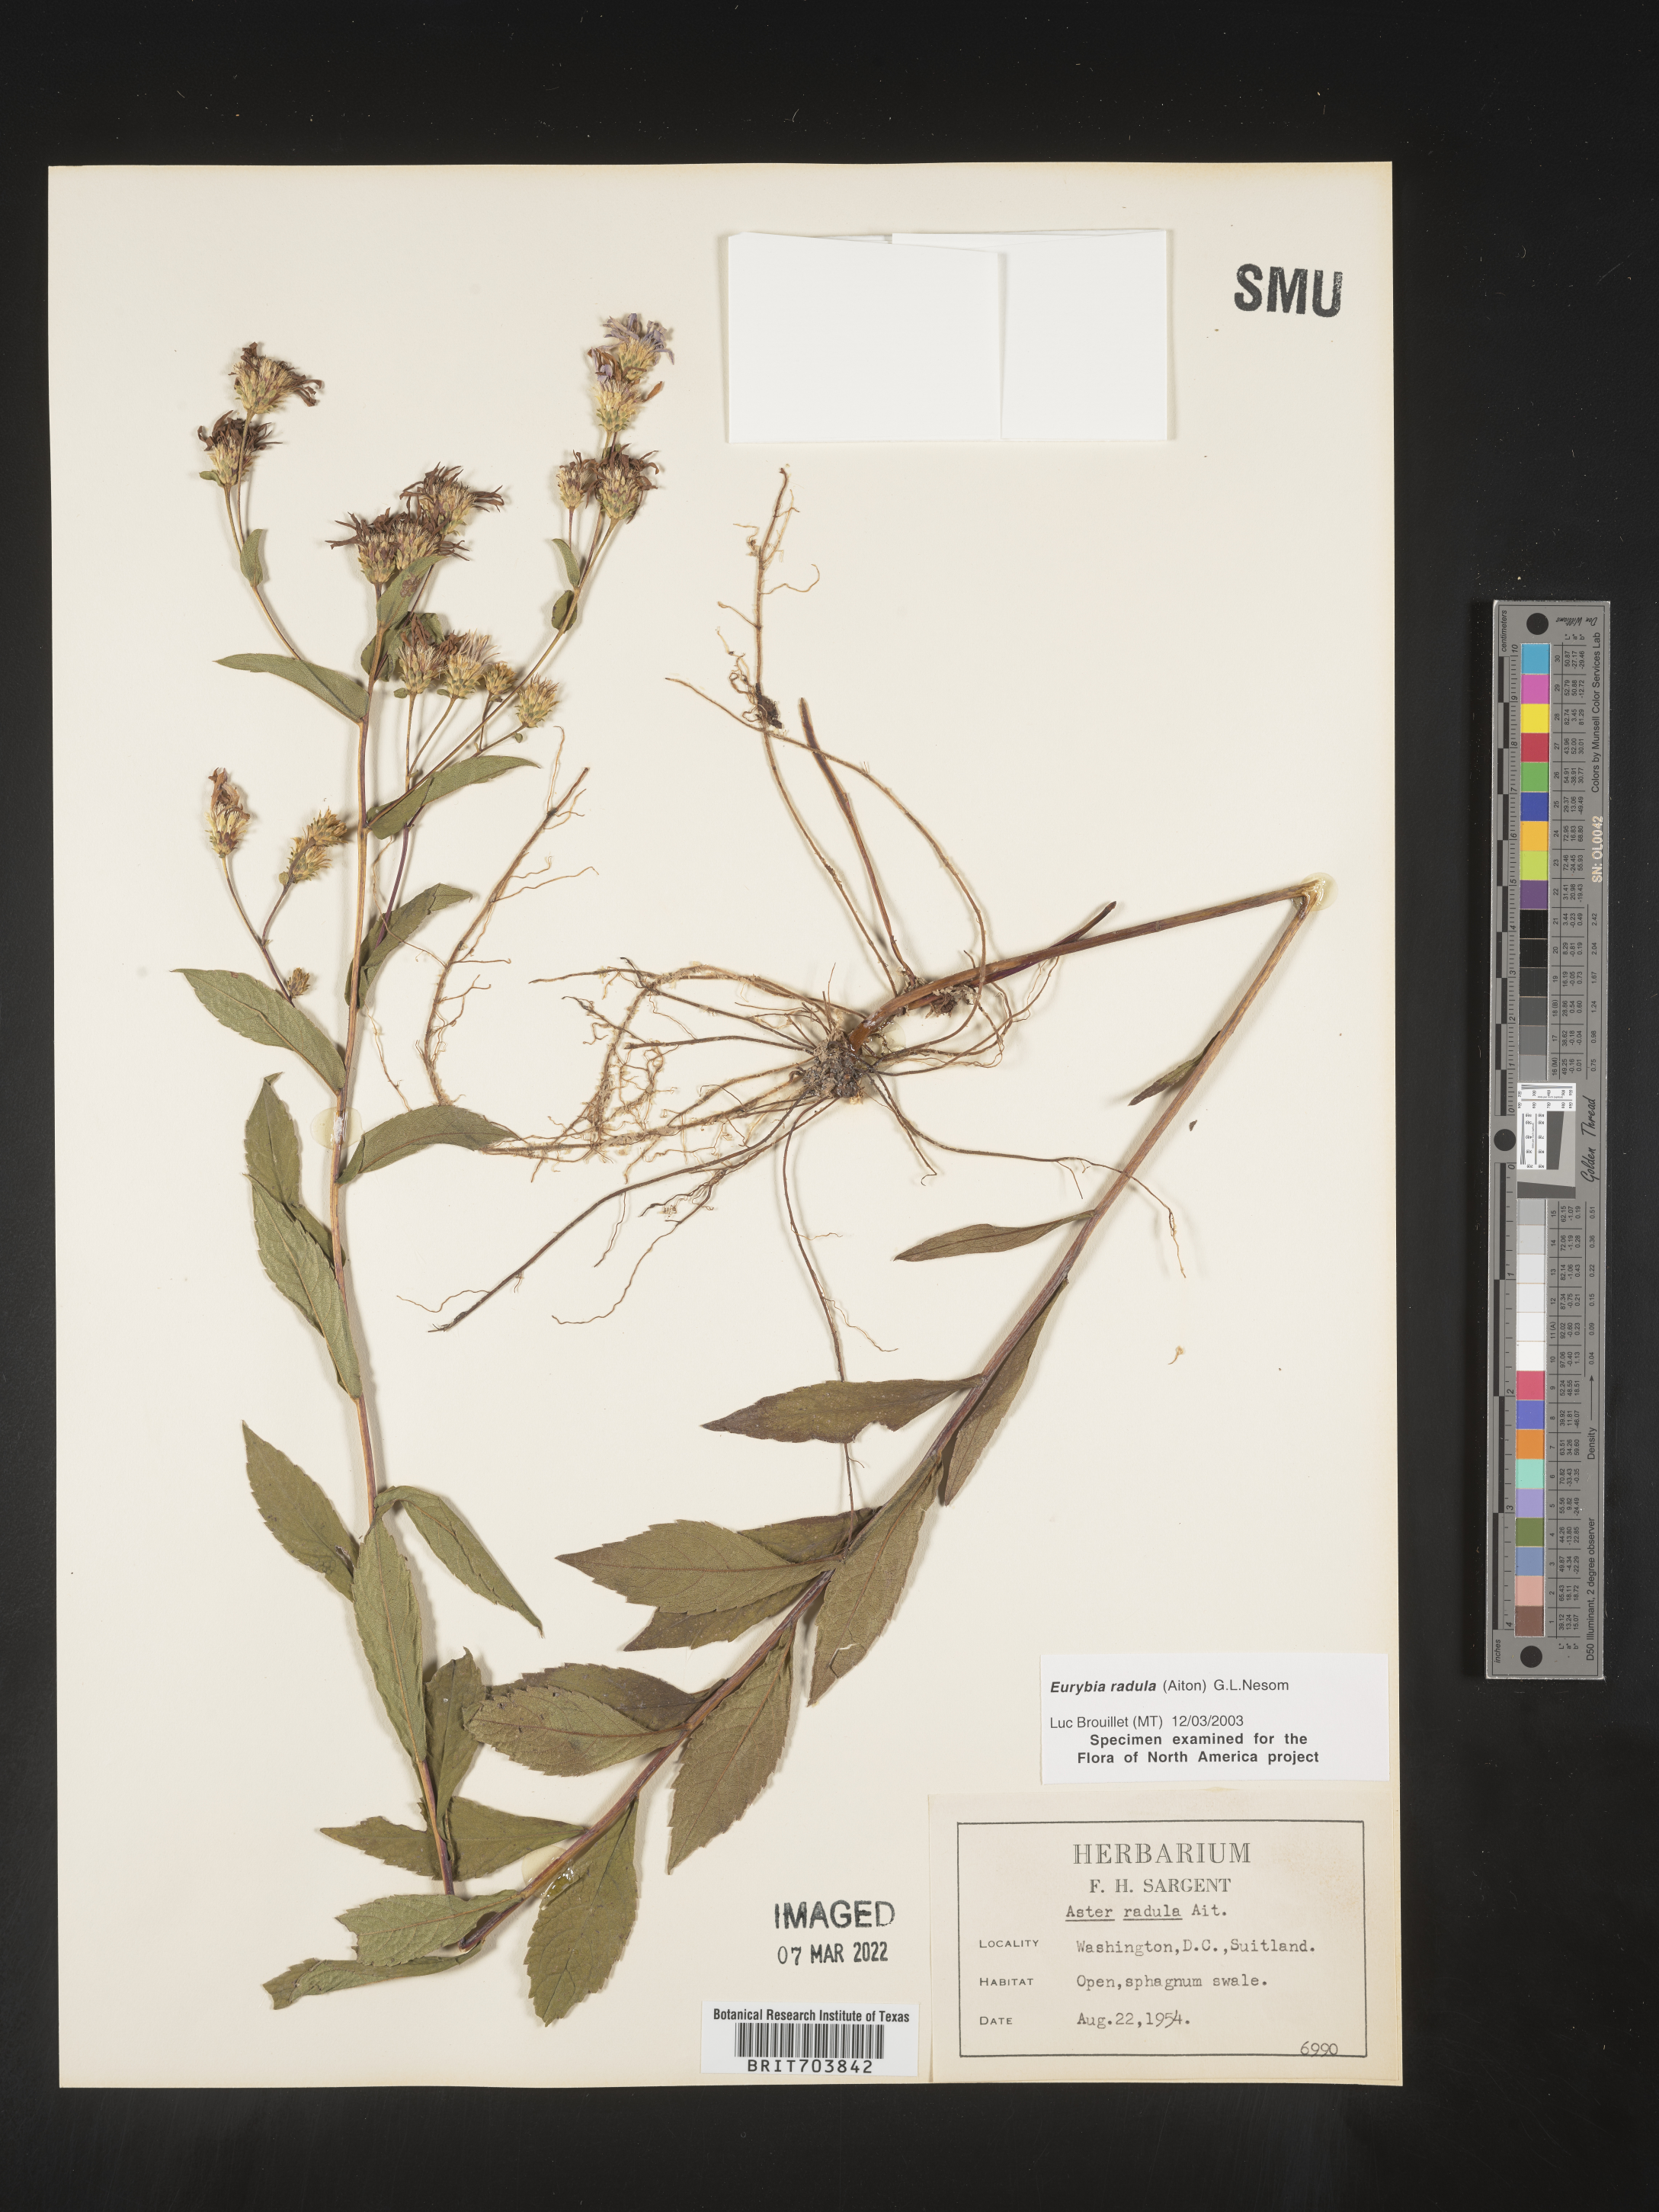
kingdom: Plantae
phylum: Tracheophyta
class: Magnoliopsida
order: Asterales
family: Asteraceae
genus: Eurybia
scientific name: Eurybia radula
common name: Low rough aster
